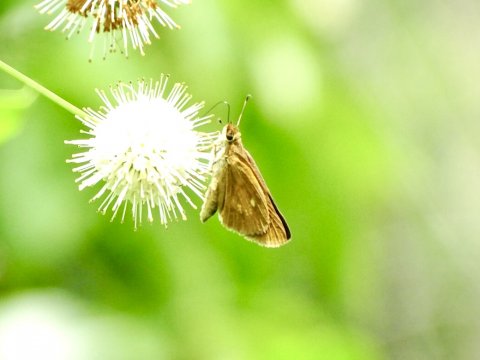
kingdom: Animalia
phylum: Arthropoda
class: Insecta
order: Lepidoptera
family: Hesperiidae
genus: Poanes
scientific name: Poanes viator
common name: Broad-winged Skipper
